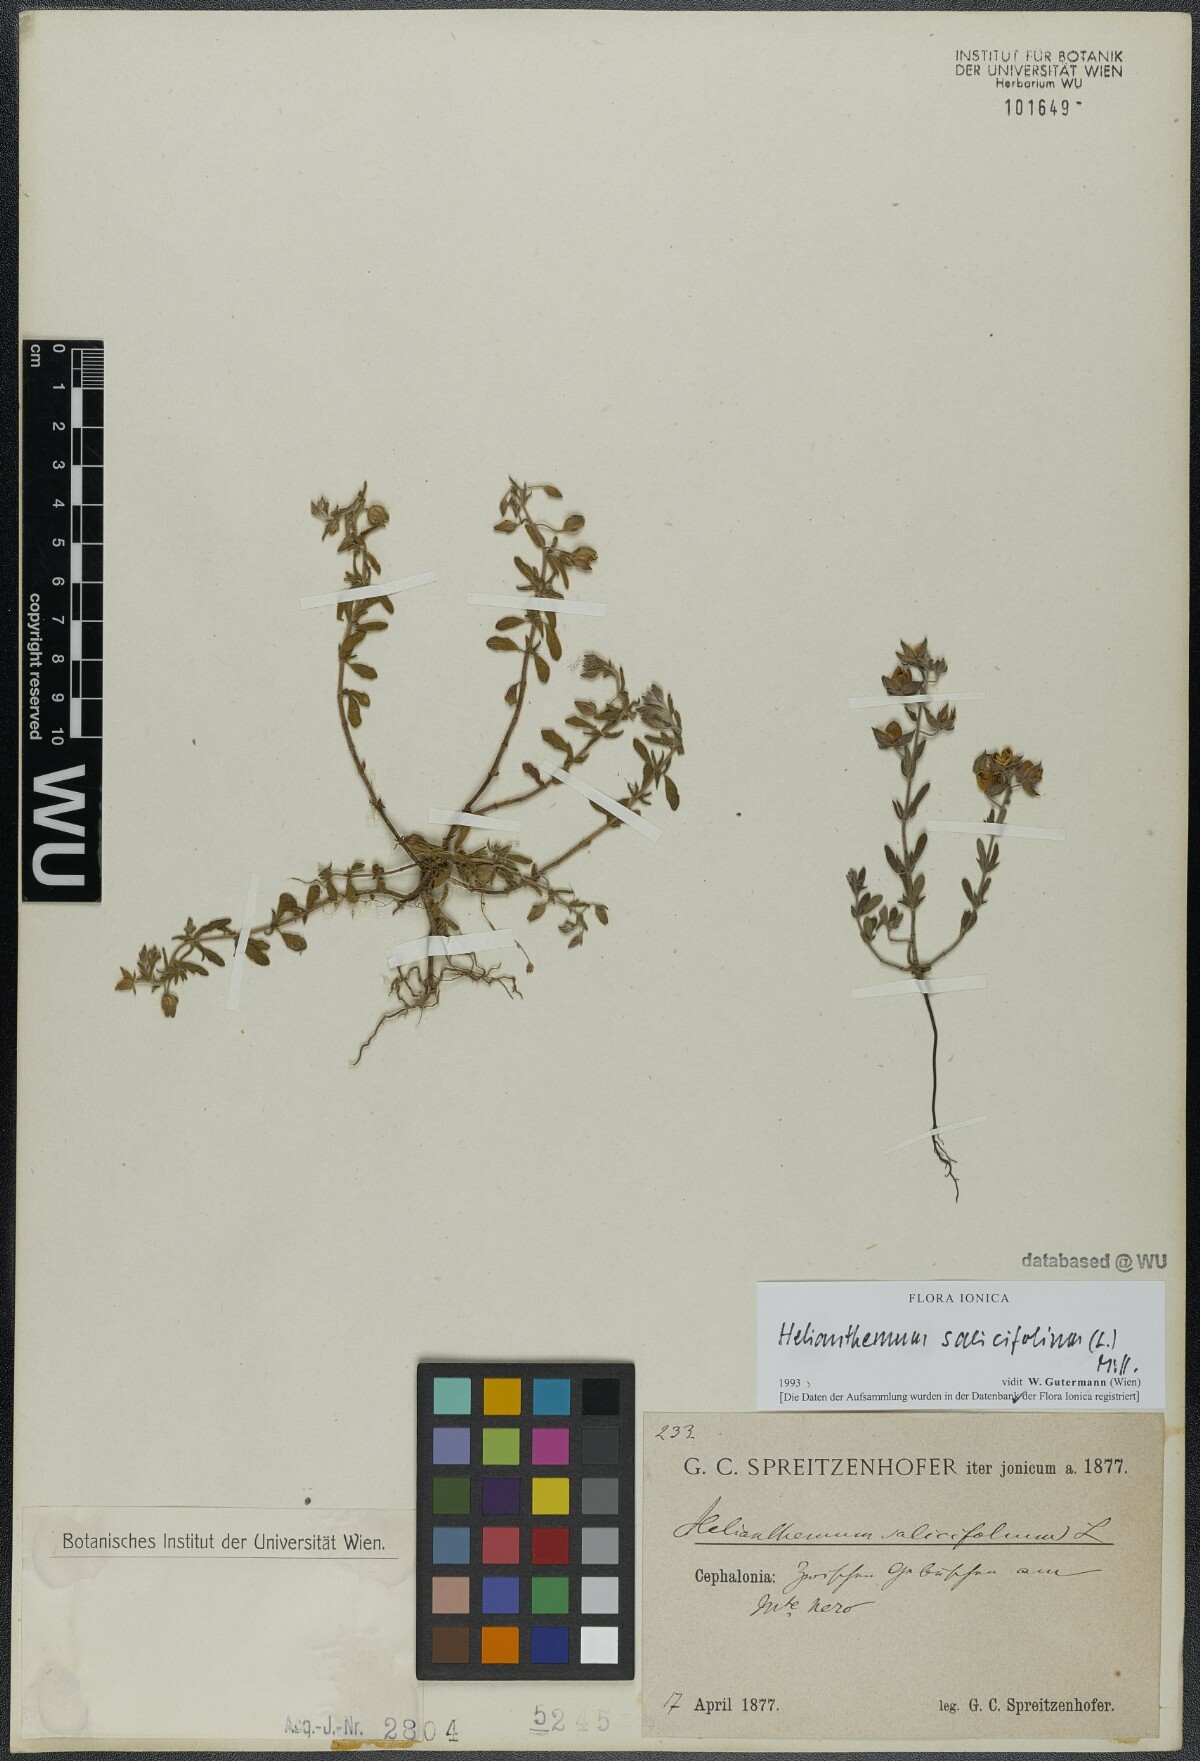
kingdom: Plantae
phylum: Tracheophyta
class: Magnoliopsida
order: Malvales
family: Cistaceae
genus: Helianthemum
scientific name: Helianthemum salicifolium
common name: Willowleaf frostweed
